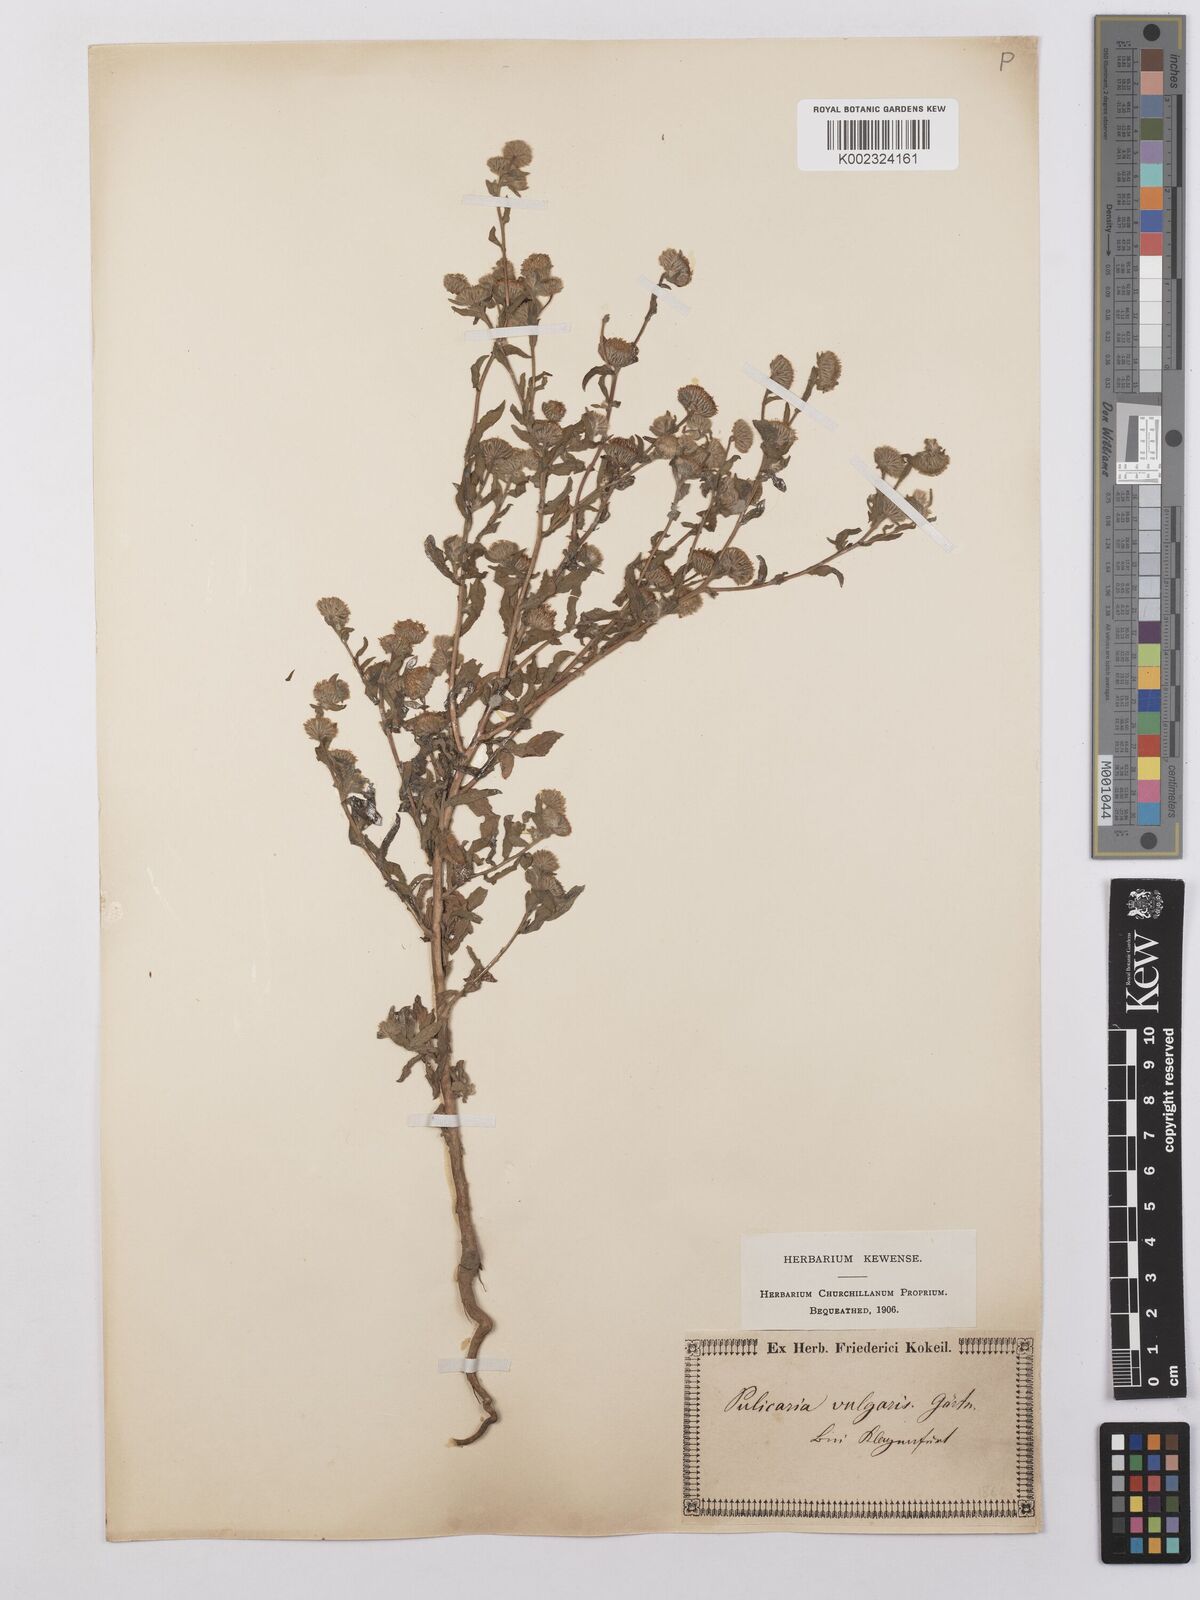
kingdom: Plantae
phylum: Tracheophyta
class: Magnoliopsida
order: Asterales
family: Asteraceae
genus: Pulicaria
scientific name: Pulicaria vulgaris
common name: Small fleabane
